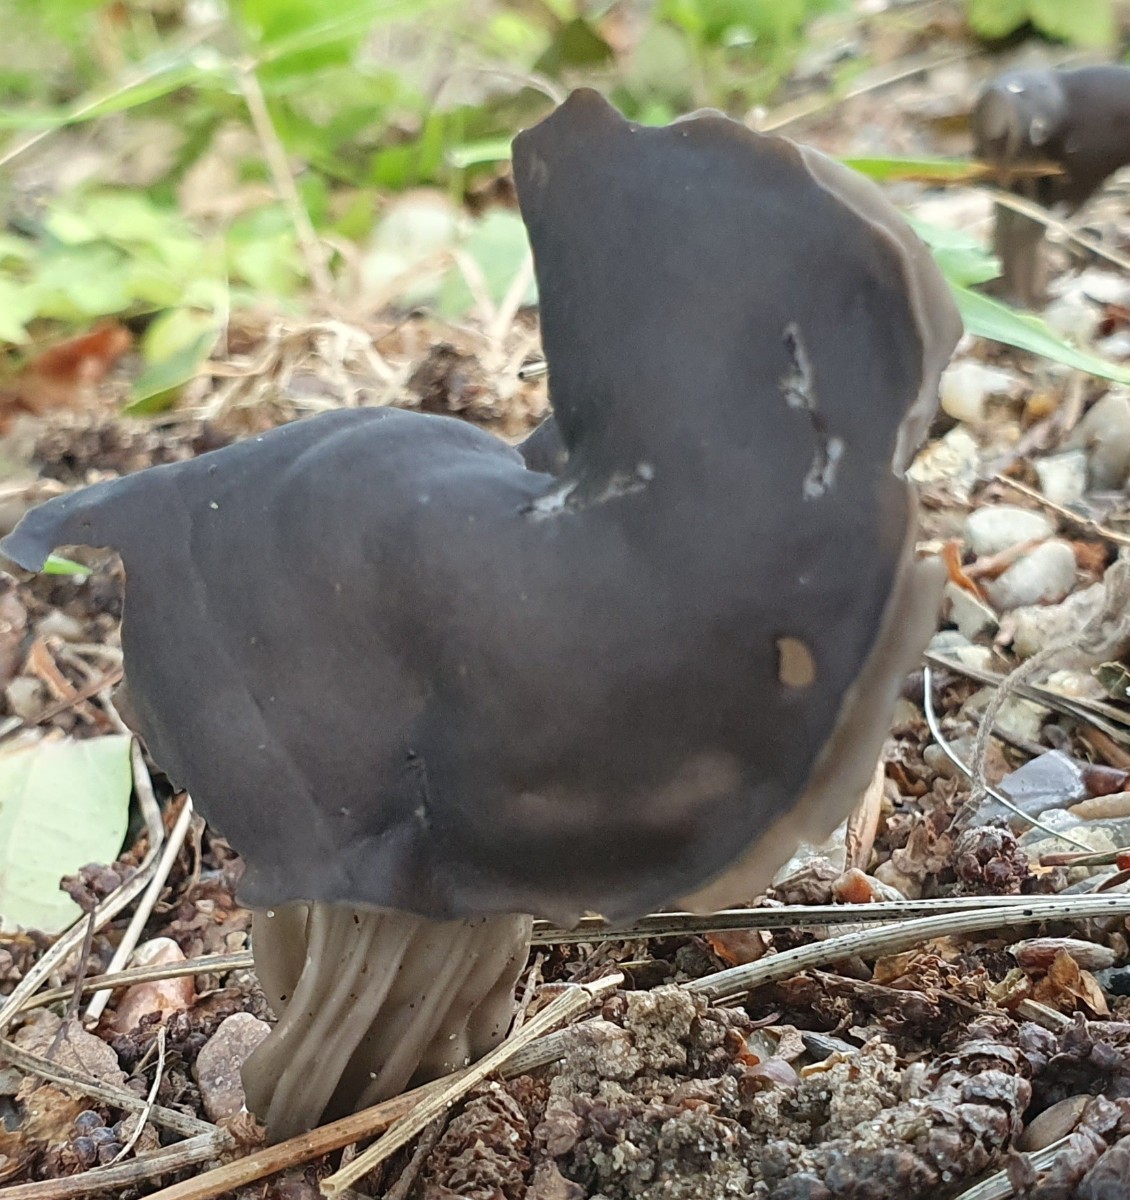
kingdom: Fungi
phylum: Ascomycota
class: Pezizomycetes
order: Pezizales
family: Helvellaceae
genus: Helvella
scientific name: Helvella lacunosa
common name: grubet foldhat
